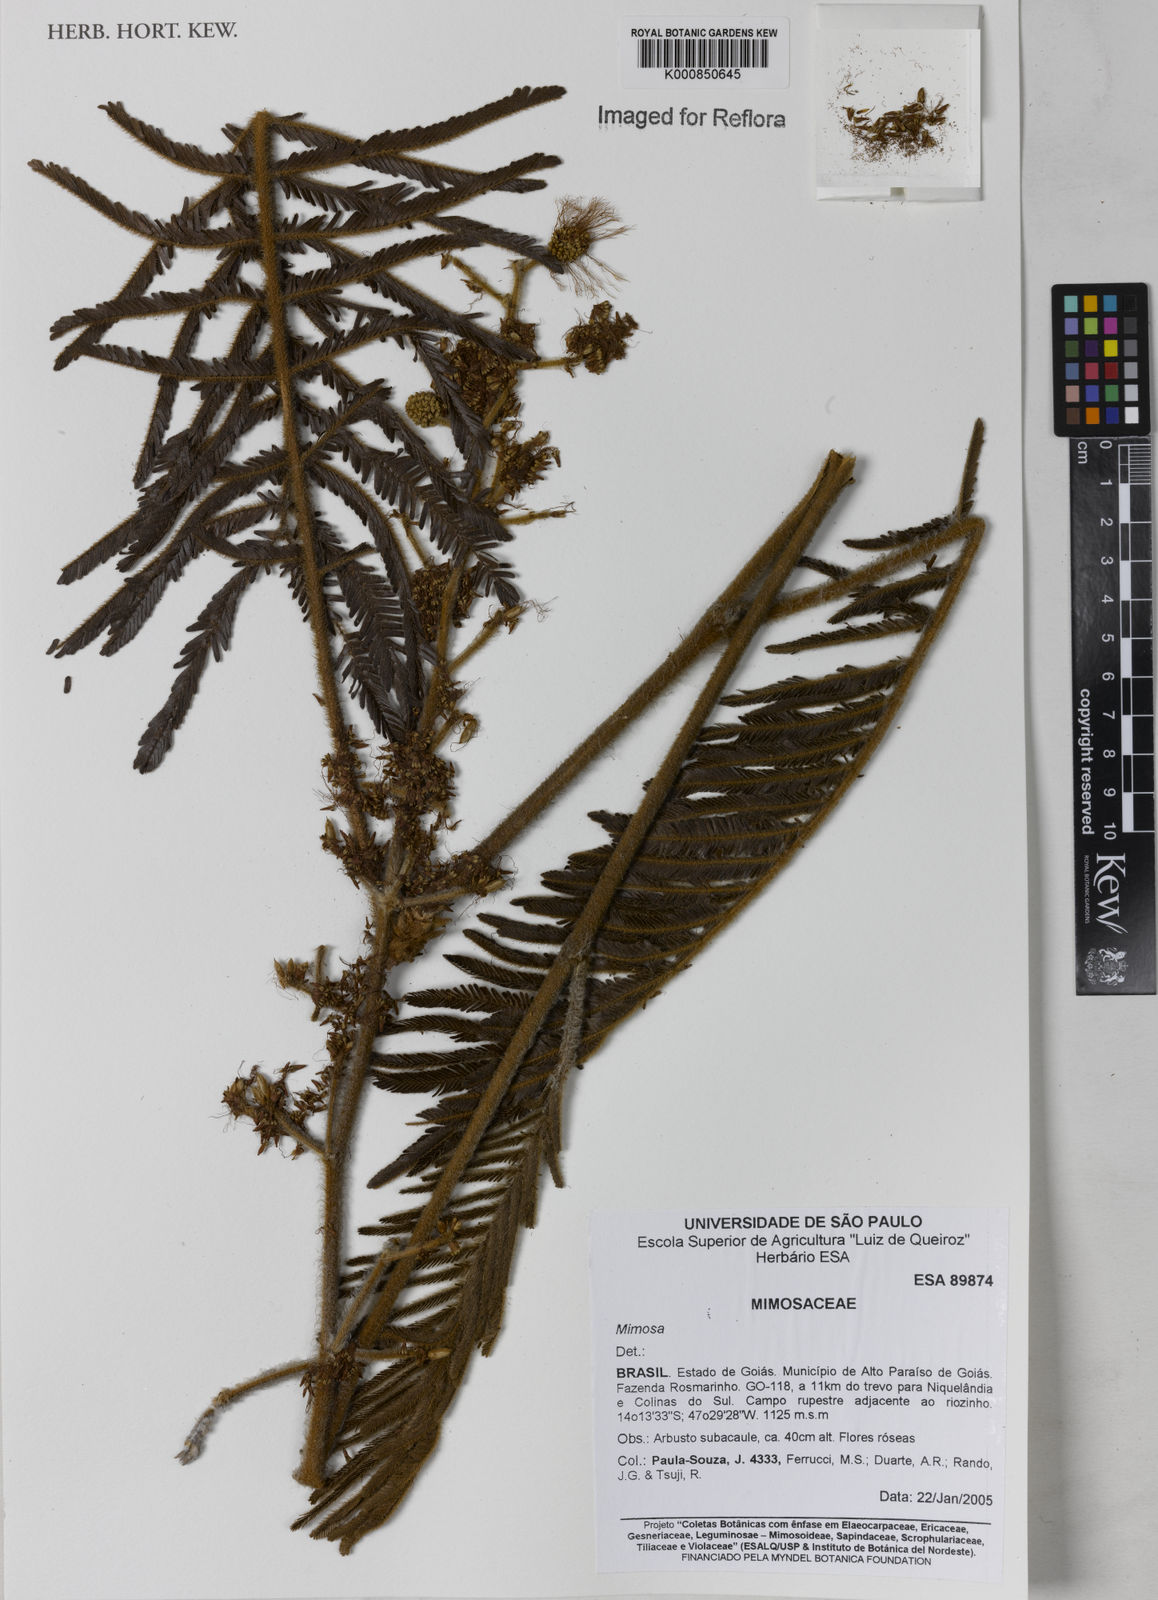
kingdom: Plantae
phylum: Tracheophyta
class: Magnoliopsida
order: Fabales
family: Fabaceae
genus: Mimosa
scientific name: Mimosa cryptothamnos
